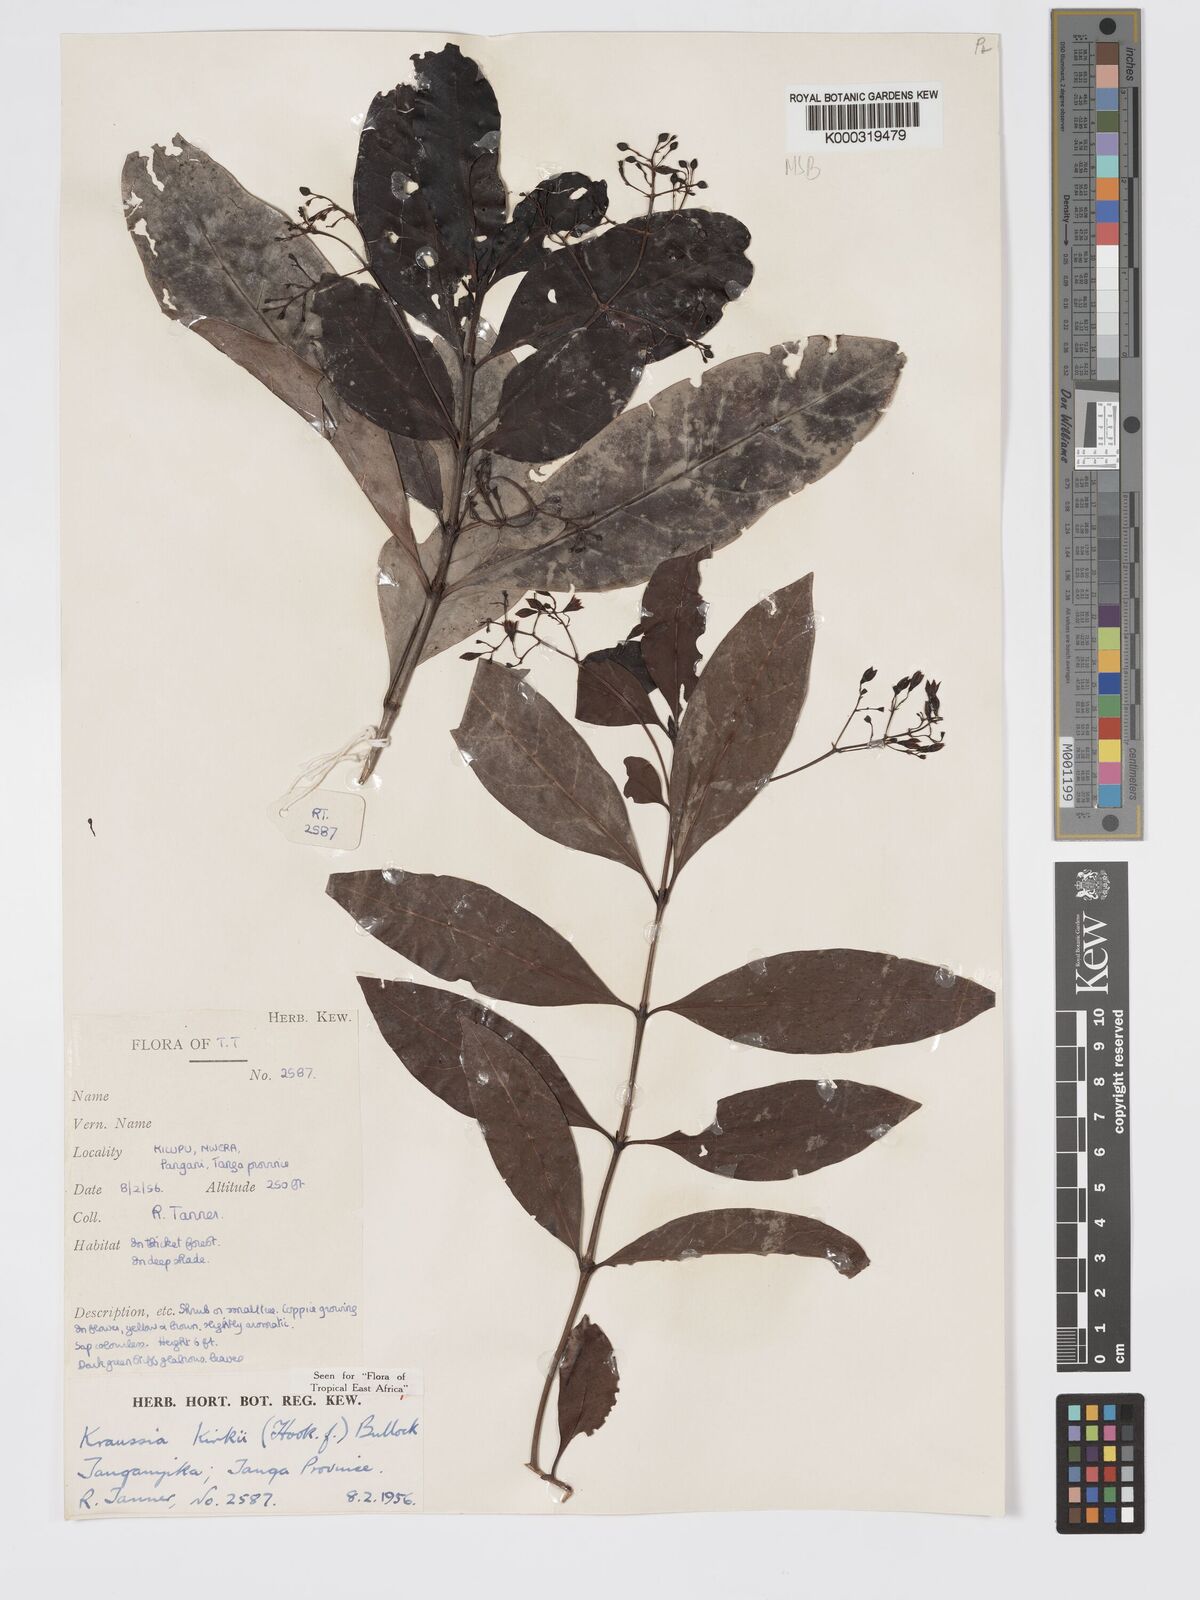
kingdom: Plantae
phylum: Tracheophyta
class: Magnoliopsida
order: Gentianales
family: Rubiaceae
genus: Kraussia
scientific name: Kraussia kirkii
